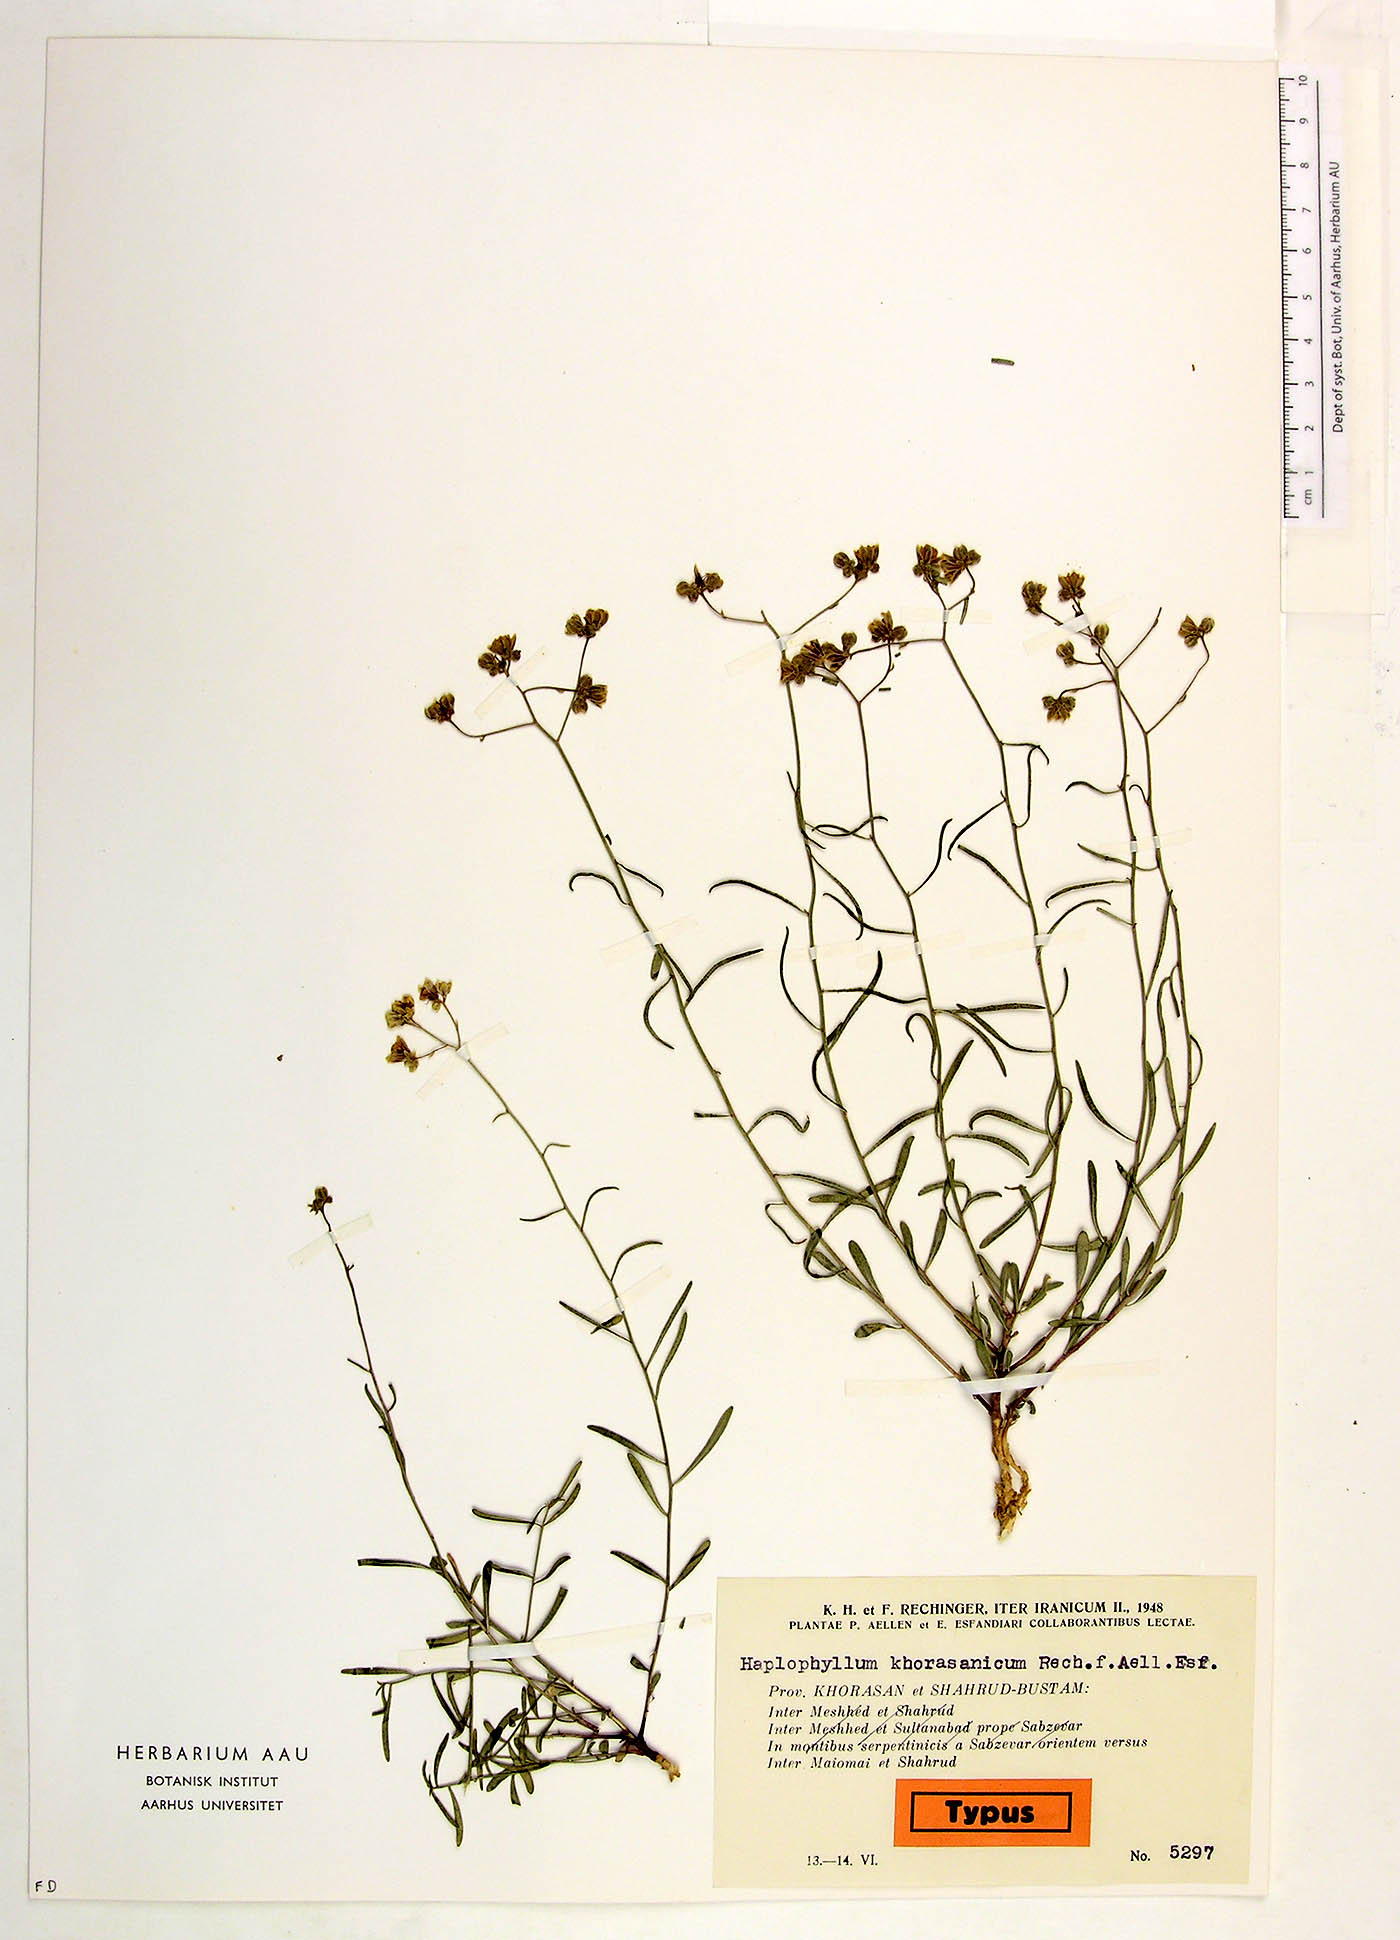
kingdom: Plantae
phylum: Tracheophyta
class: Magnoliopsida
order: Sapindales
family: Rutaceae
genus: Haplophyllum
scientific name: Haplophyllum furfuraceum
